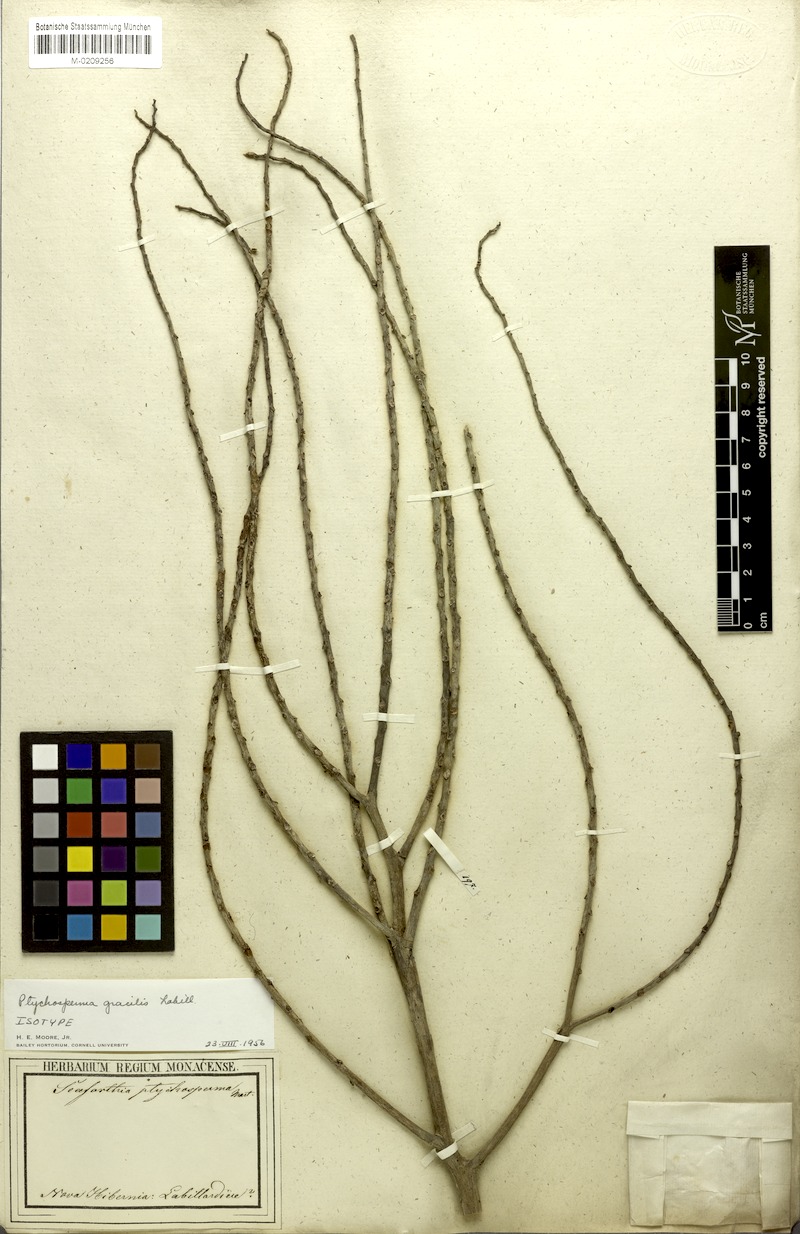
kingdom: Plantae
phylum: Tracheophyta
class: Liliopsida
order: Arecales
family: Arecaceae
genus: Ptychosperma
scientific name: Ptychosperma gracile
